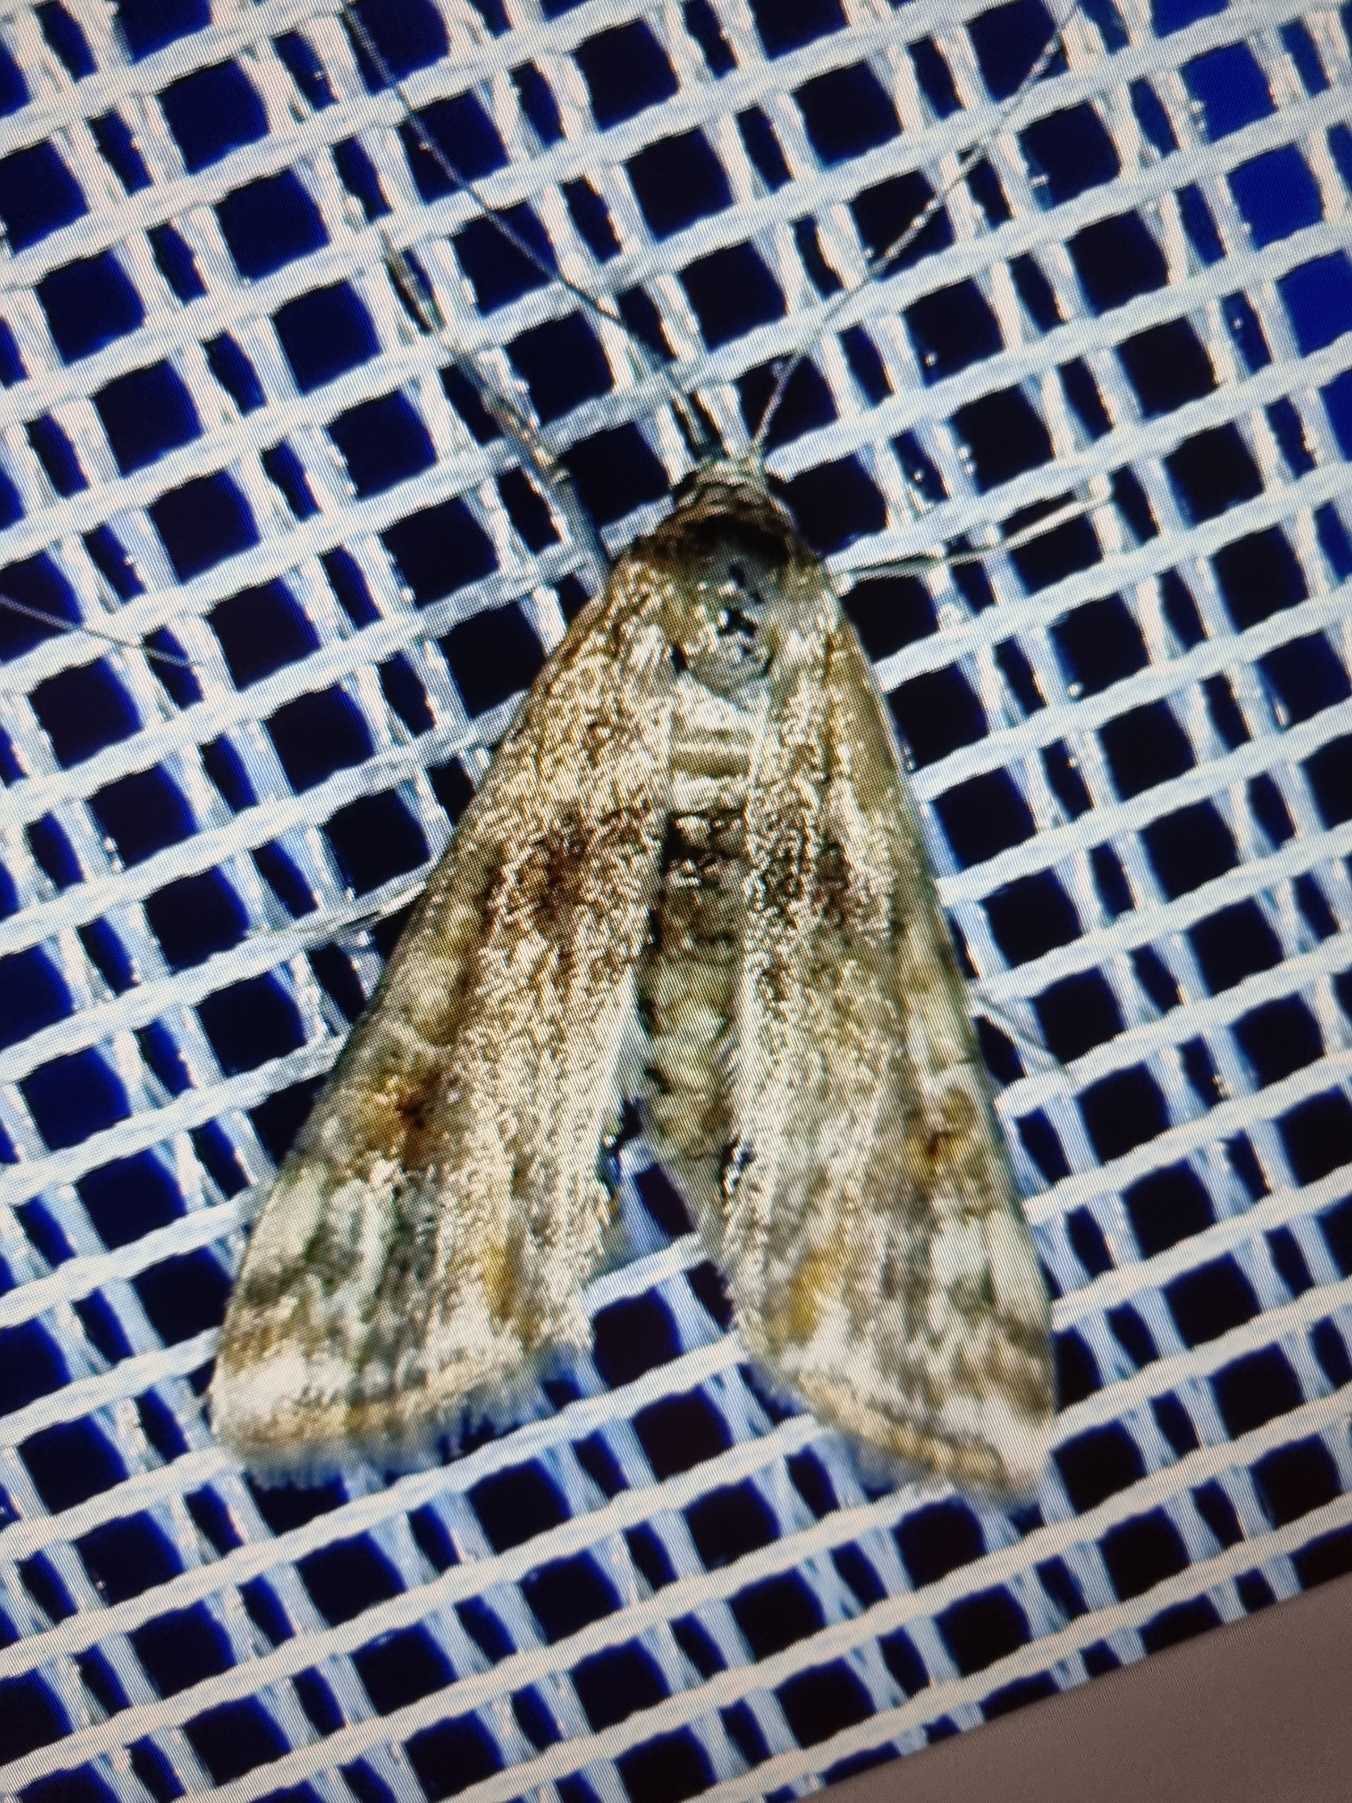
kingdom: Animalia
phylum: Arthropoda
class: Insecta
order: Lepidoptera
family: Crambidae
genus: Cataclysta
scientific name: Cataclysta lemnata
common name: Andemadhalvmøl
